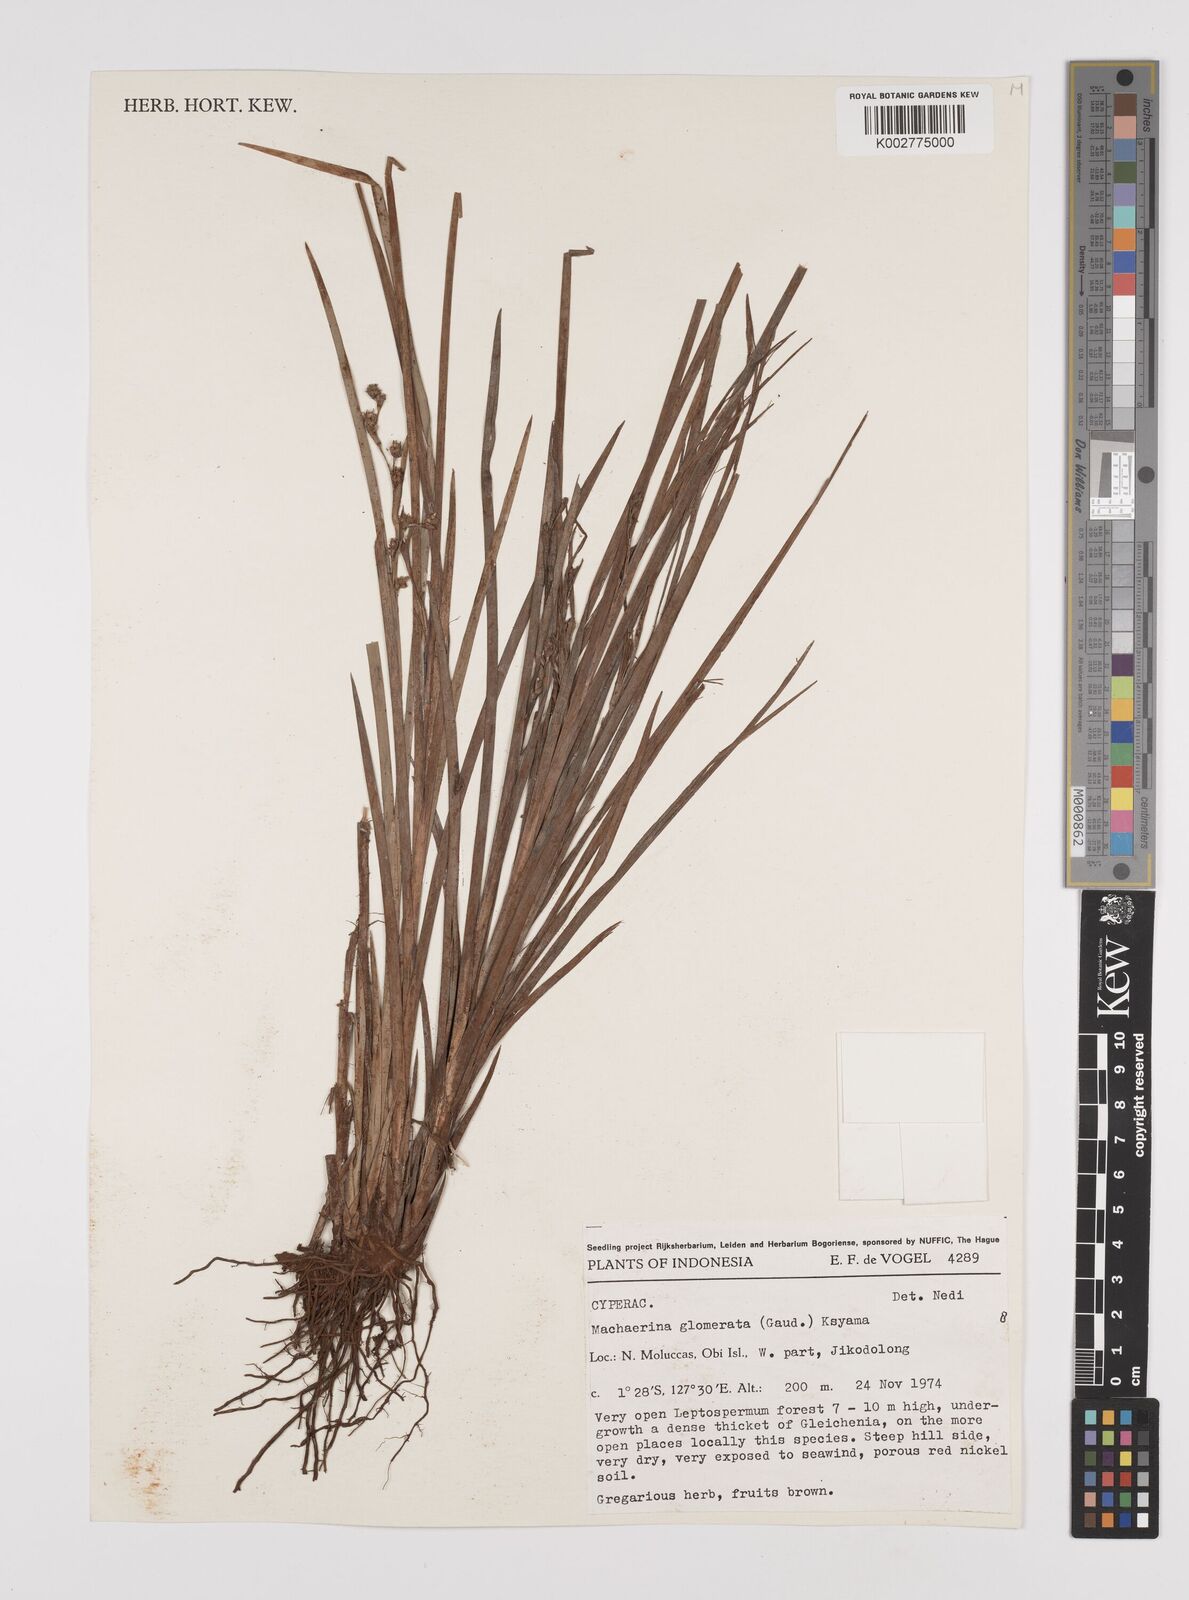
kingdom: Plantae
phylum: Tracheophyta
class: Liliopsida
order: Poales
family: Cyperaceae
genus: Machaerina
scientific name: Machaerina glomerata
